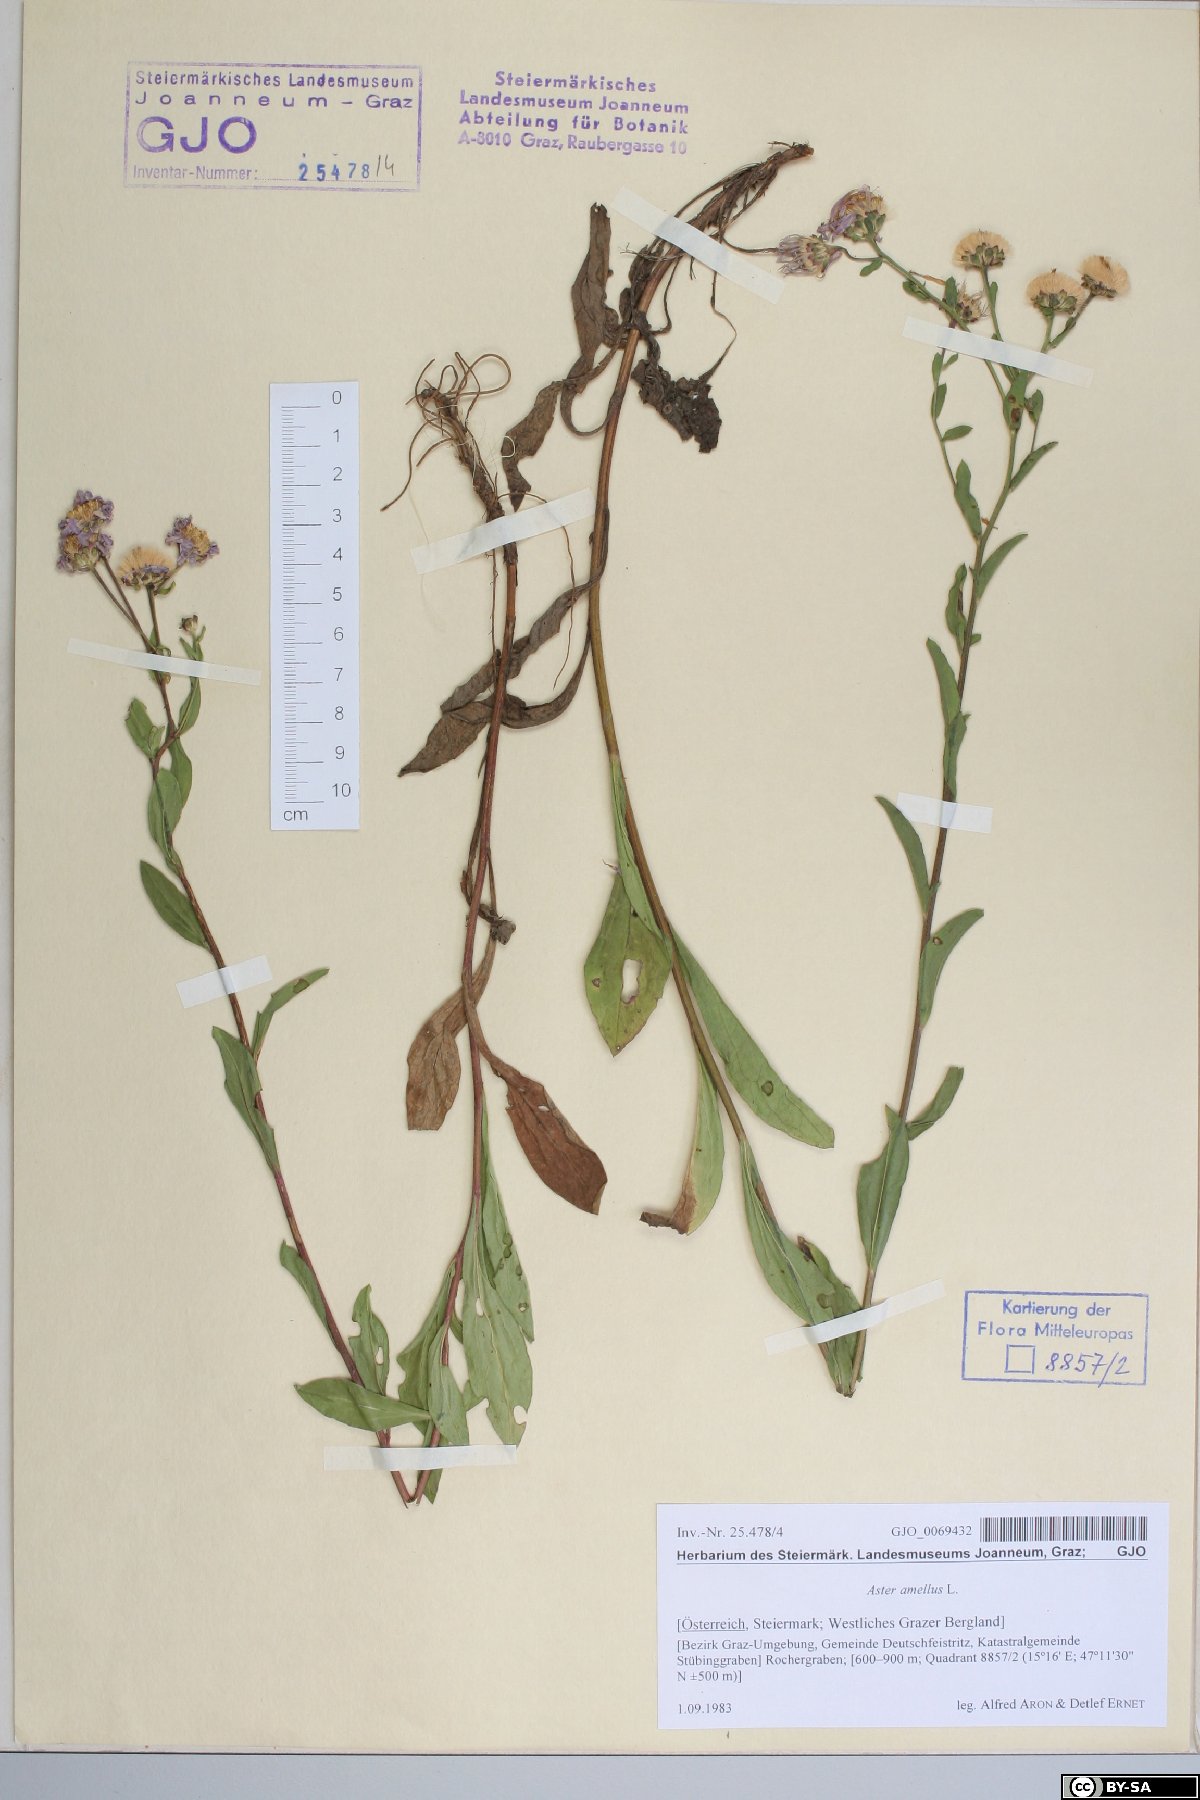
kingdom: Plantae
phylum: Tracheophyta
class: Magnoliopsida
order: Asterales
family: Asteraceae
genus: Aster
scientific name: Aster amellus
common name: European michaelmas daisy
